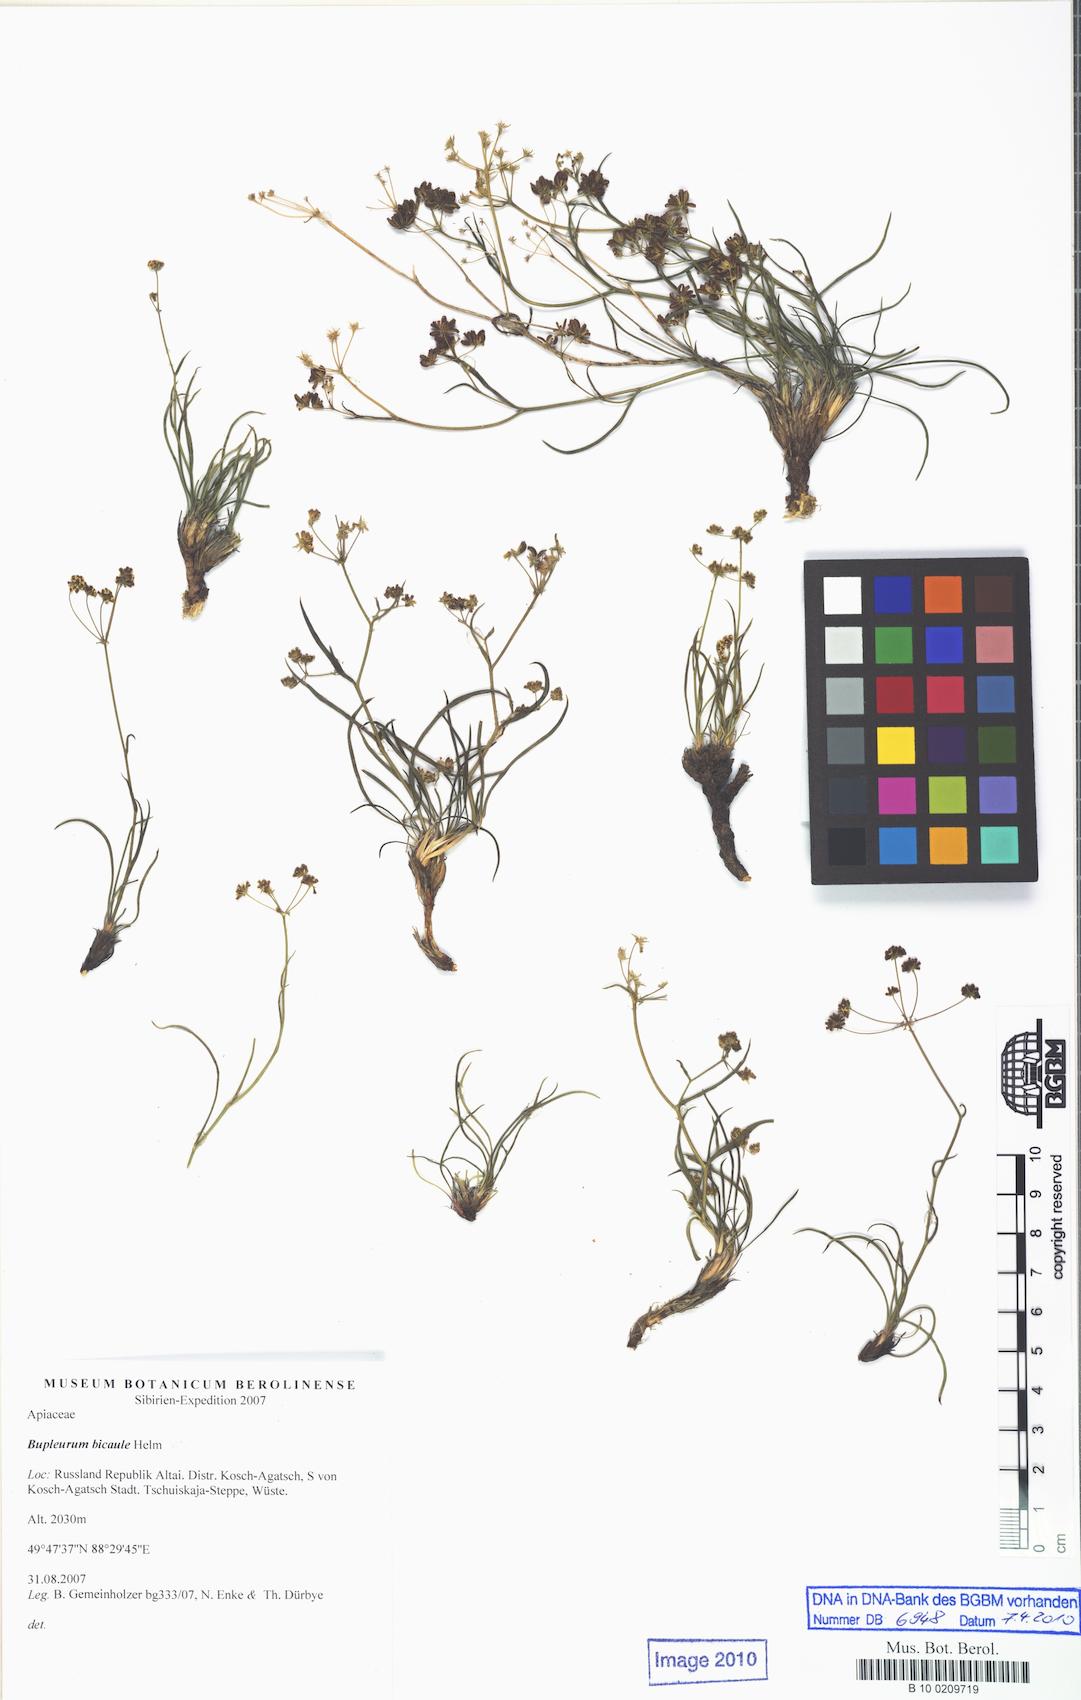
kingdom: Plantae
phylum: Tracheophyta
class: Magnoliopsida
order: Apiales
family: Apiaceae
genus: Bupleurum
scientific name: Bupleurum bicaule
